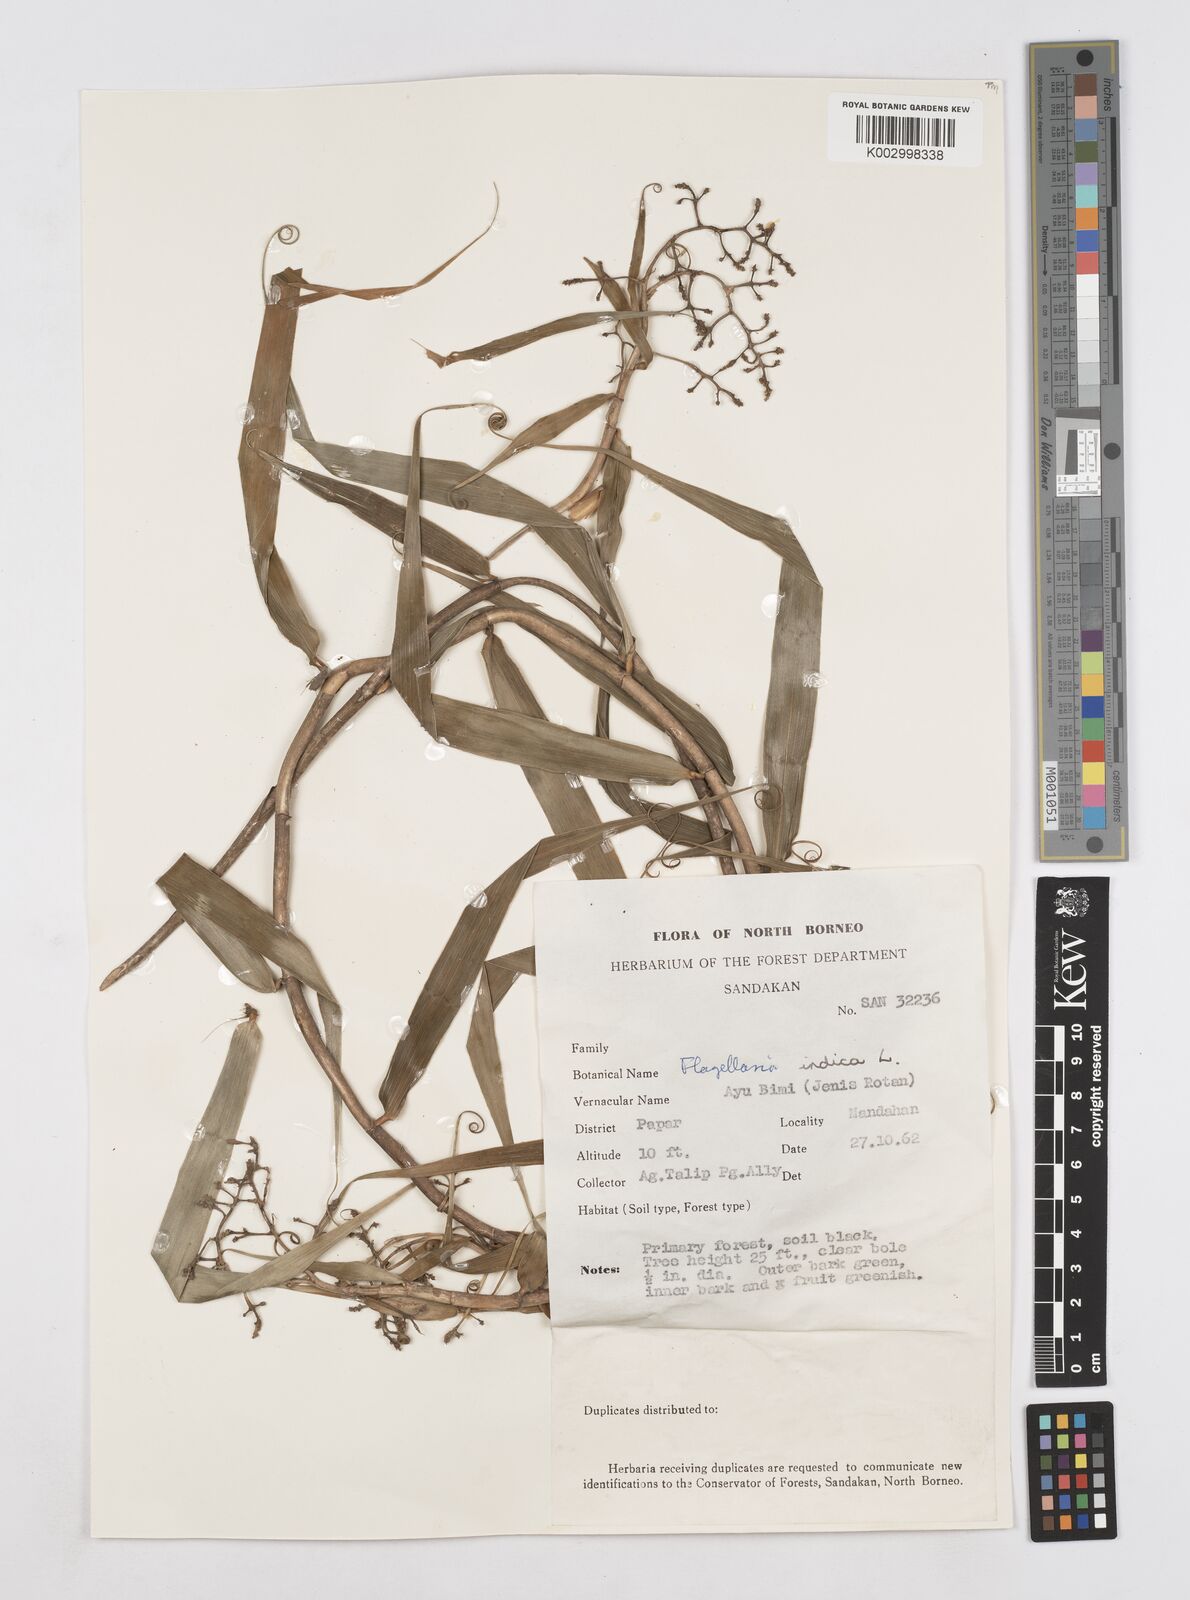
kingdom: Plantae
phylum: Tracheophyta
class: Liliopsida
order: Poales
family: Flagellariaceae
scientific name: Flagellariaceae
